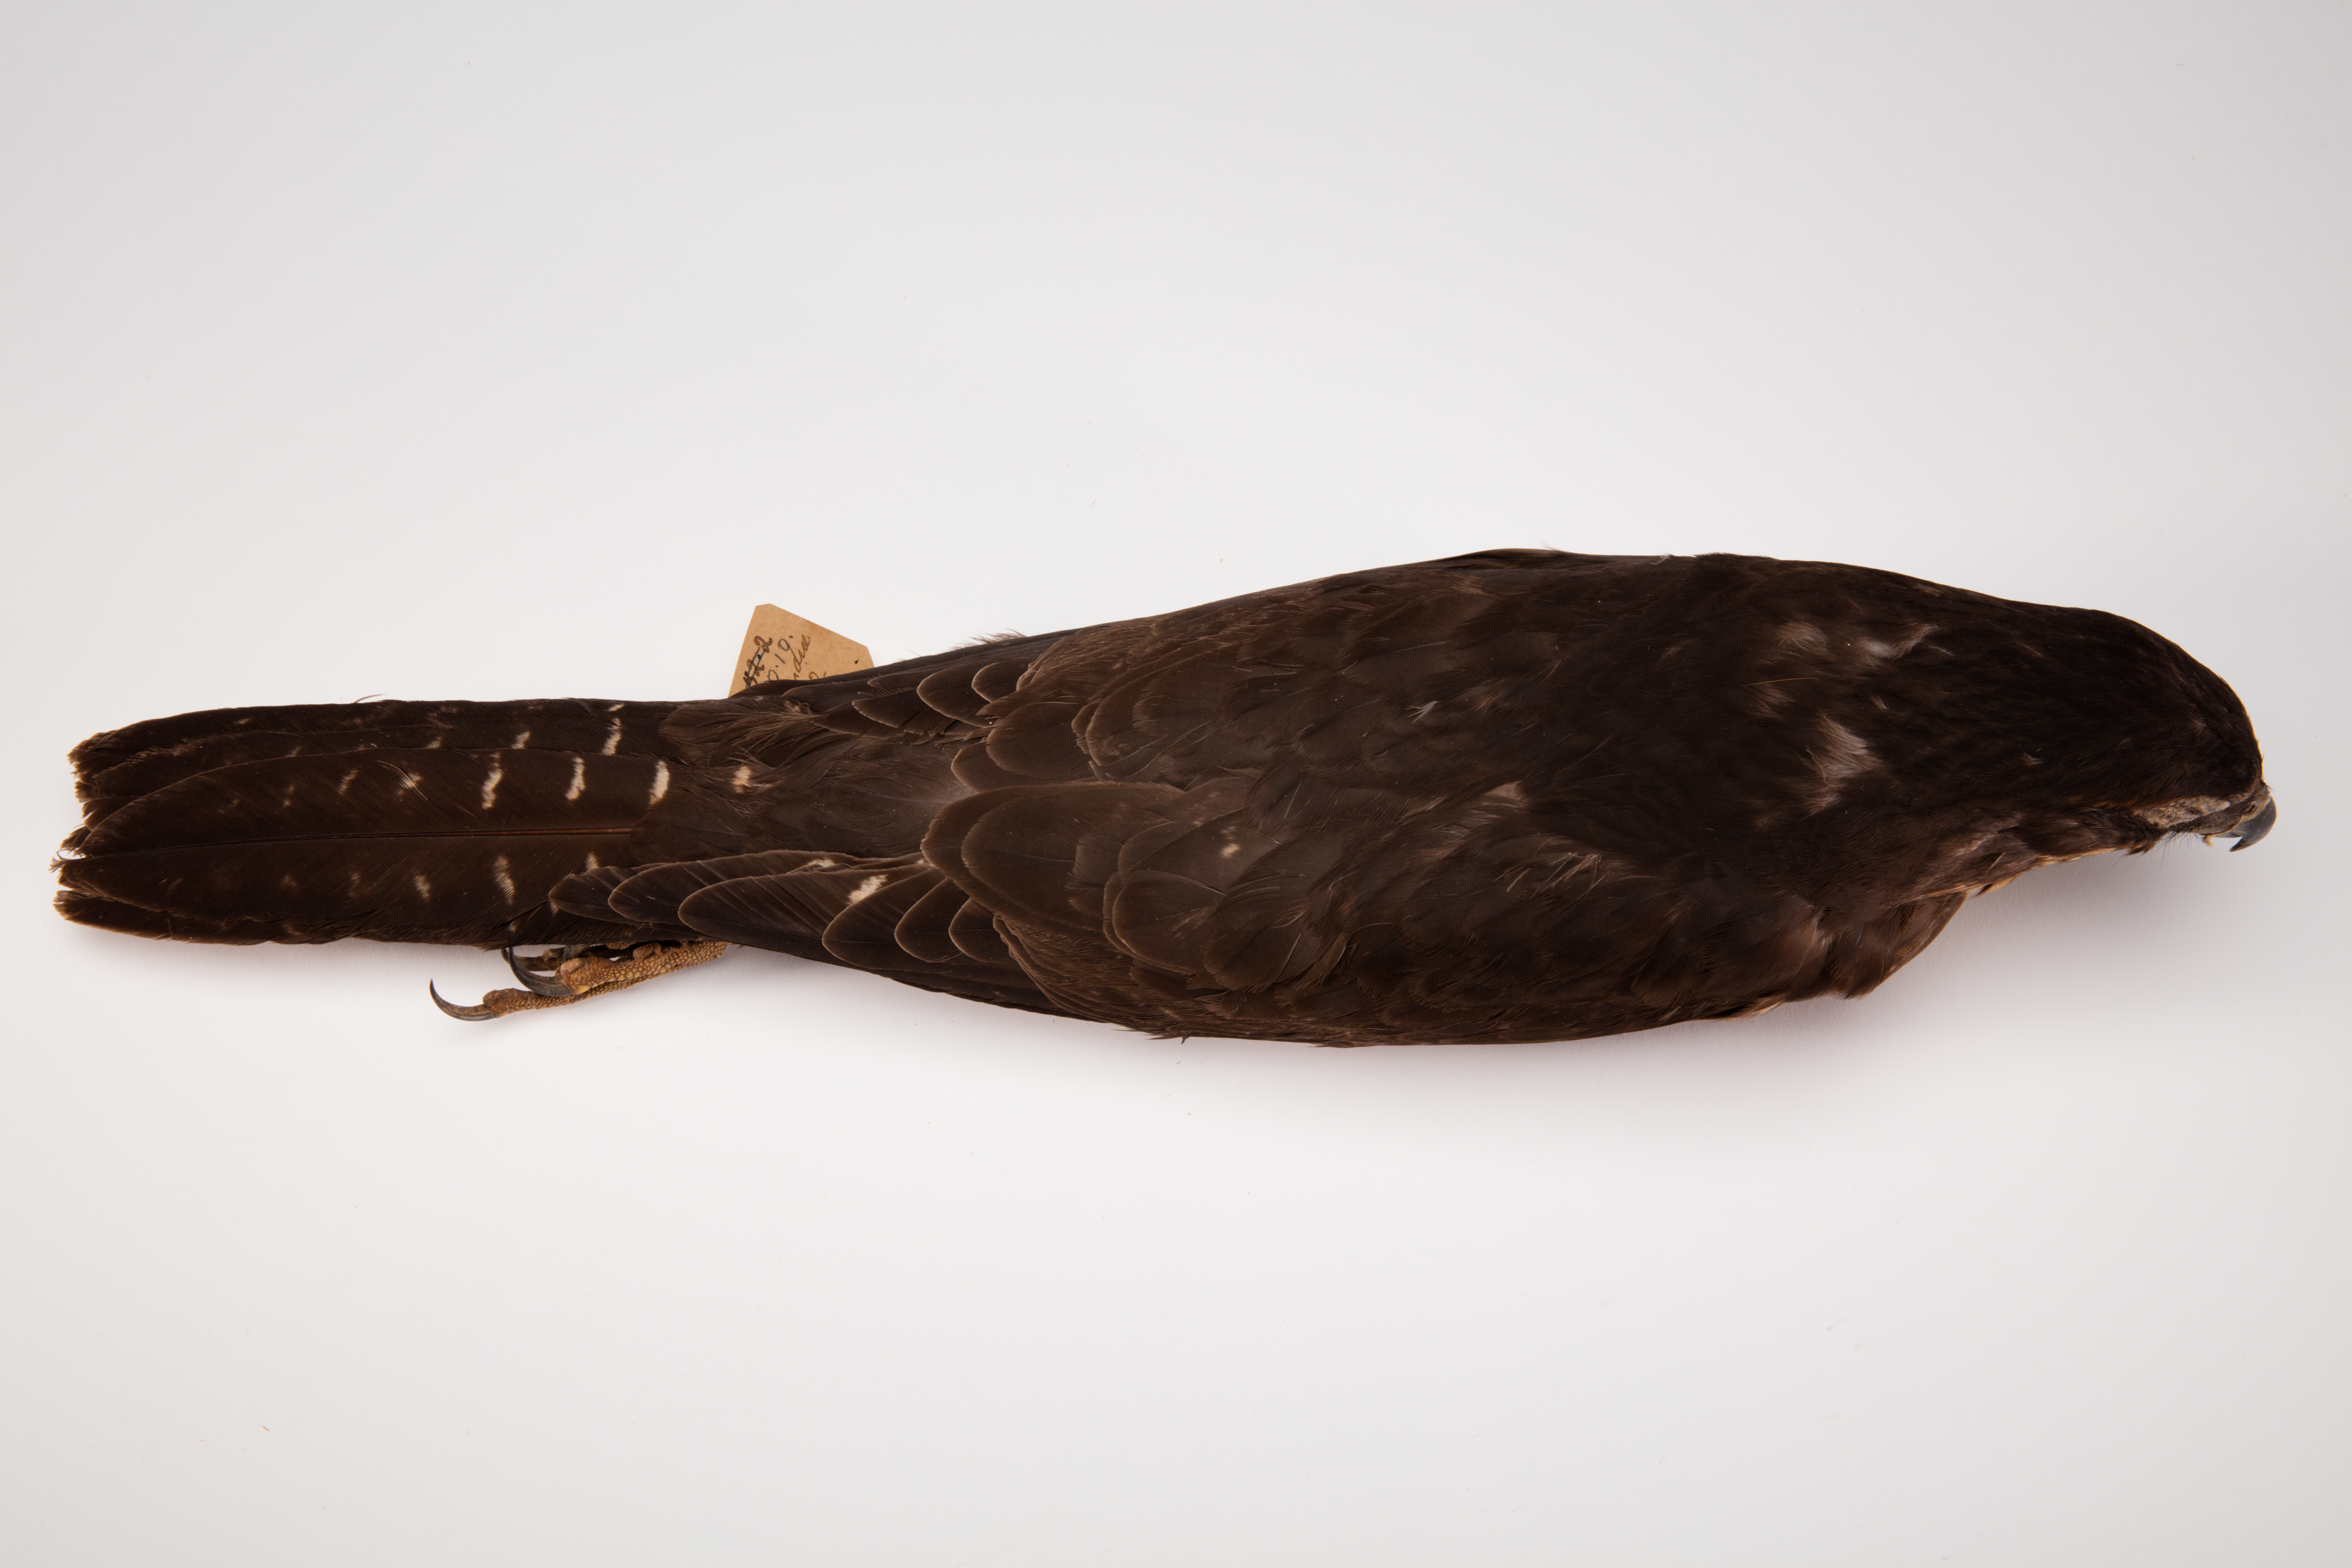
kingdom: Animalia
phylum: Chordata
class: Aves
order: Falconiformes
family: Falconidae
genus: Falco
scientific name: Falco novaeseelandiae
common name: New zealand falcon
